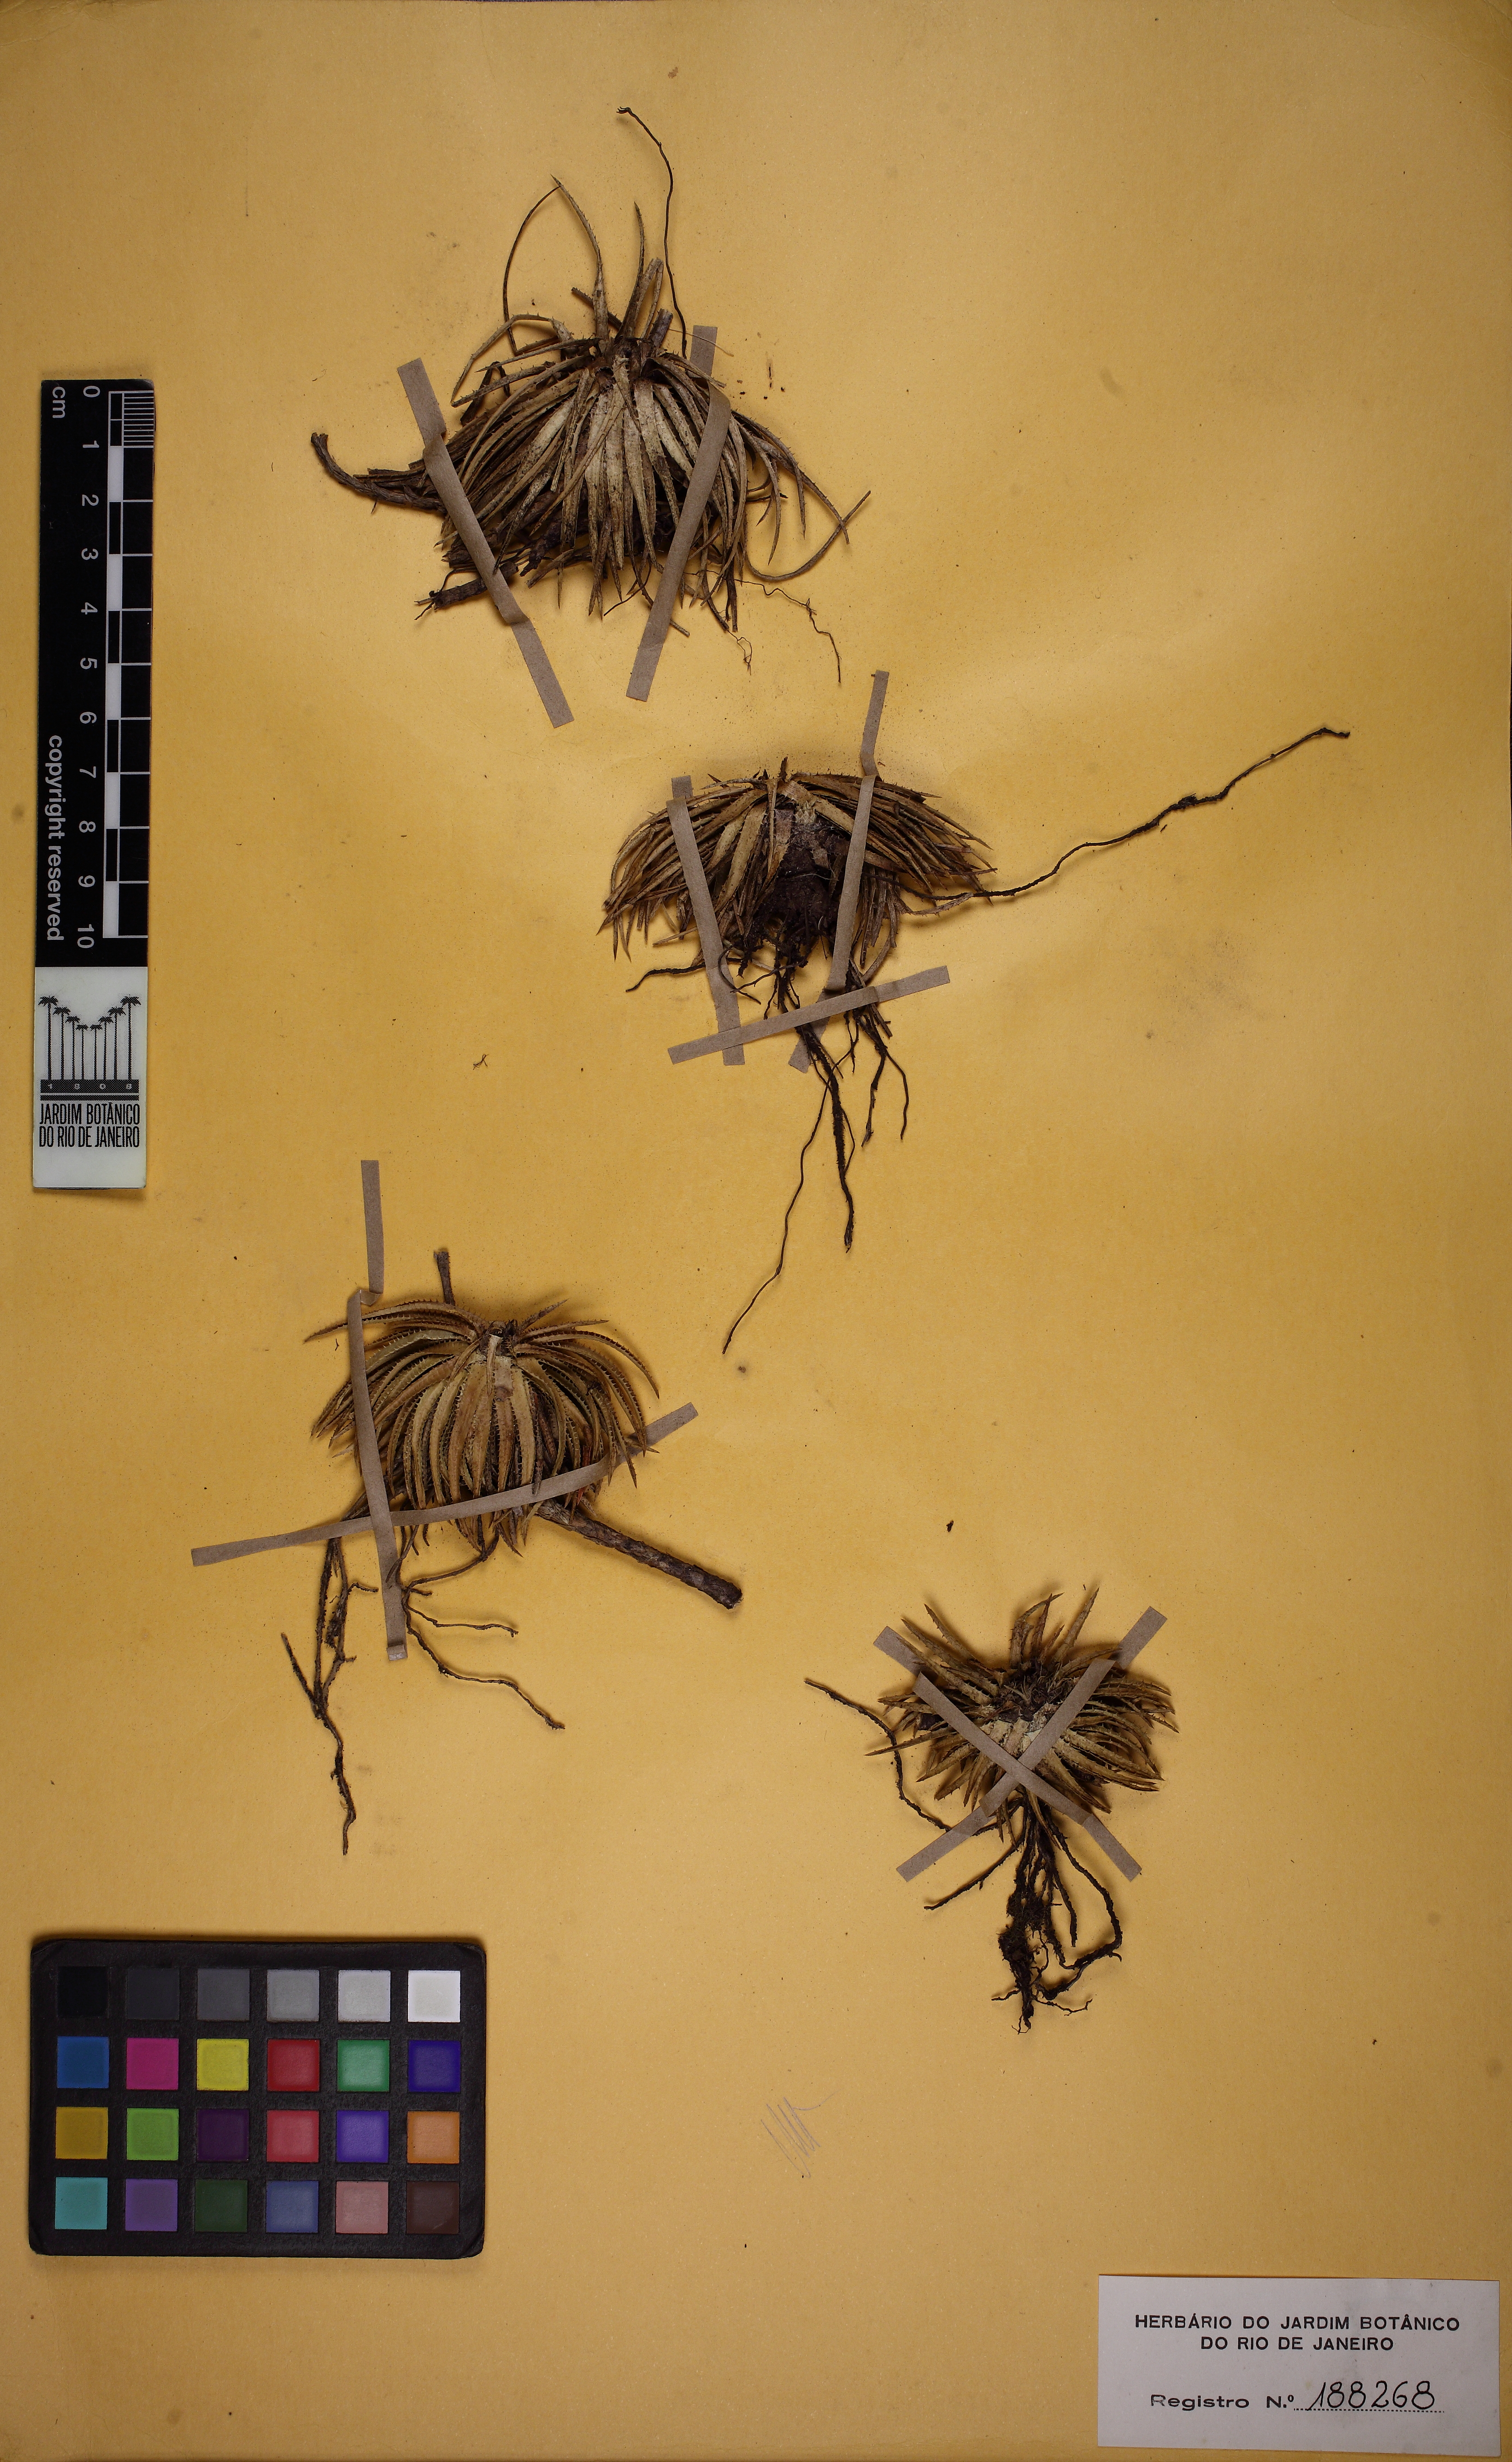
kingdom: Plantae
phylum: Tracheophyta
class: Liliopsida
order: Poales
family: Bromeliaceae
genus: Sincoraea
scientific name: Sincoraea mucugensis
